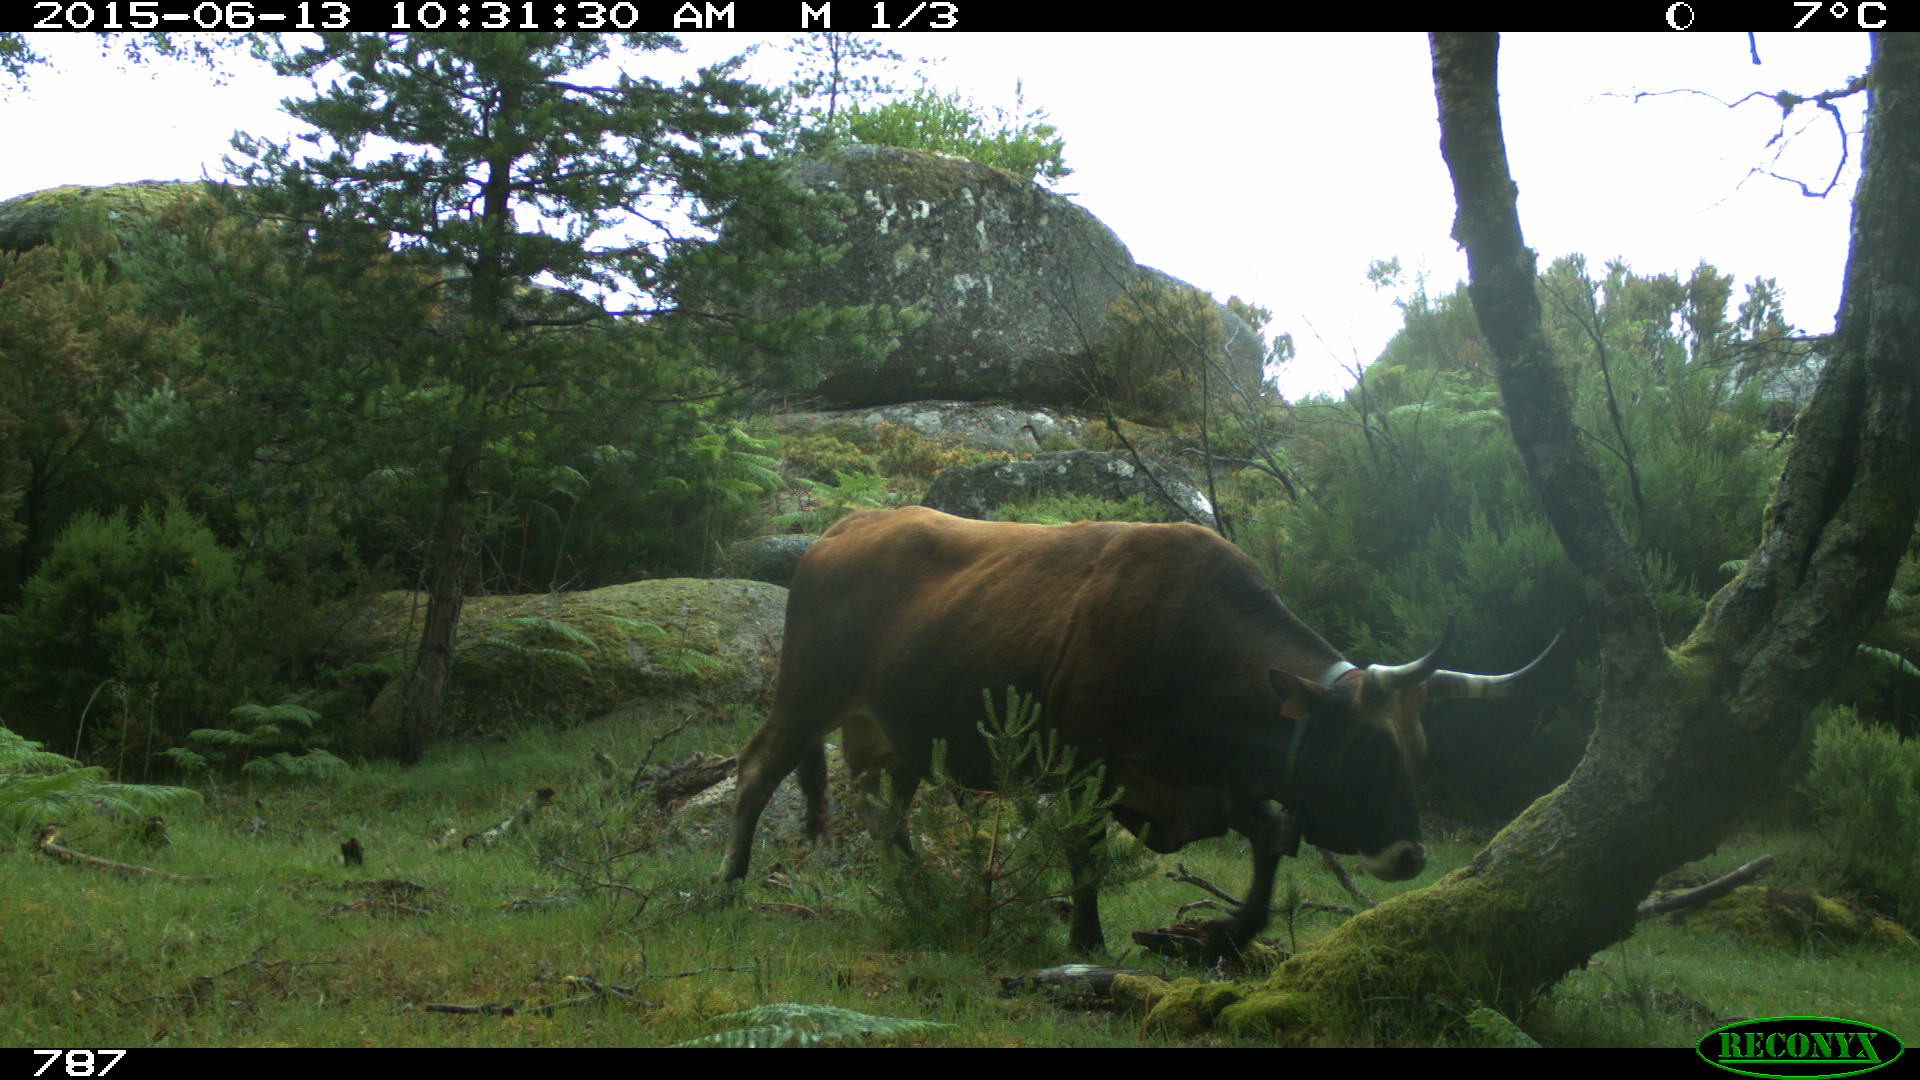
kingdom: Animalia
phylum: Chordata
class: Mammalia
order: Artiodactyla
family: Bovidae
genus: Bos
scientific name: Bos taurus
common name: Domesticated cattle
